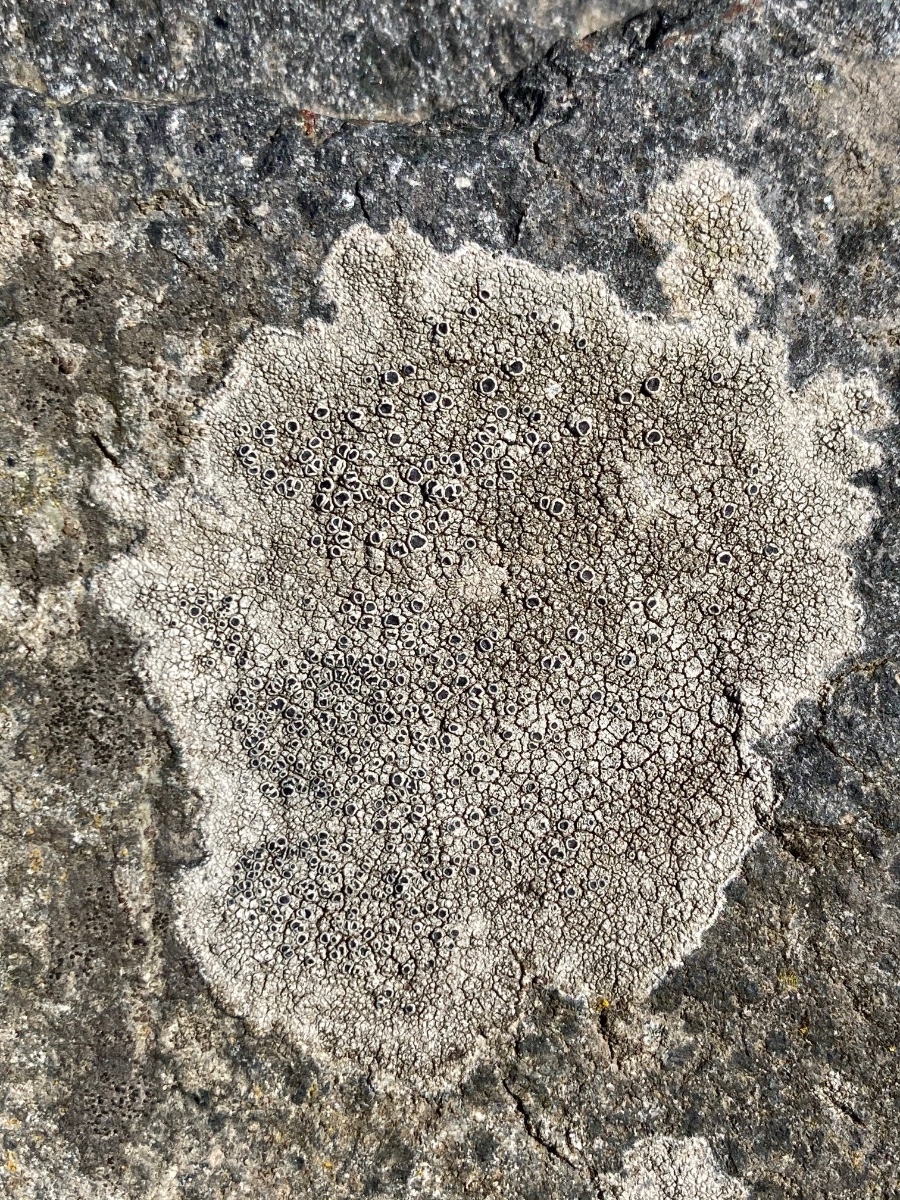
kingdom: Fungi
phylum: Ascomycota
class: Lecanoromycetes
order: Lecanorales
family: Tephromelataceae
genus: Tephromela
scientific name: Tephromela atra
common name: sortfrugtet kantskivelav
